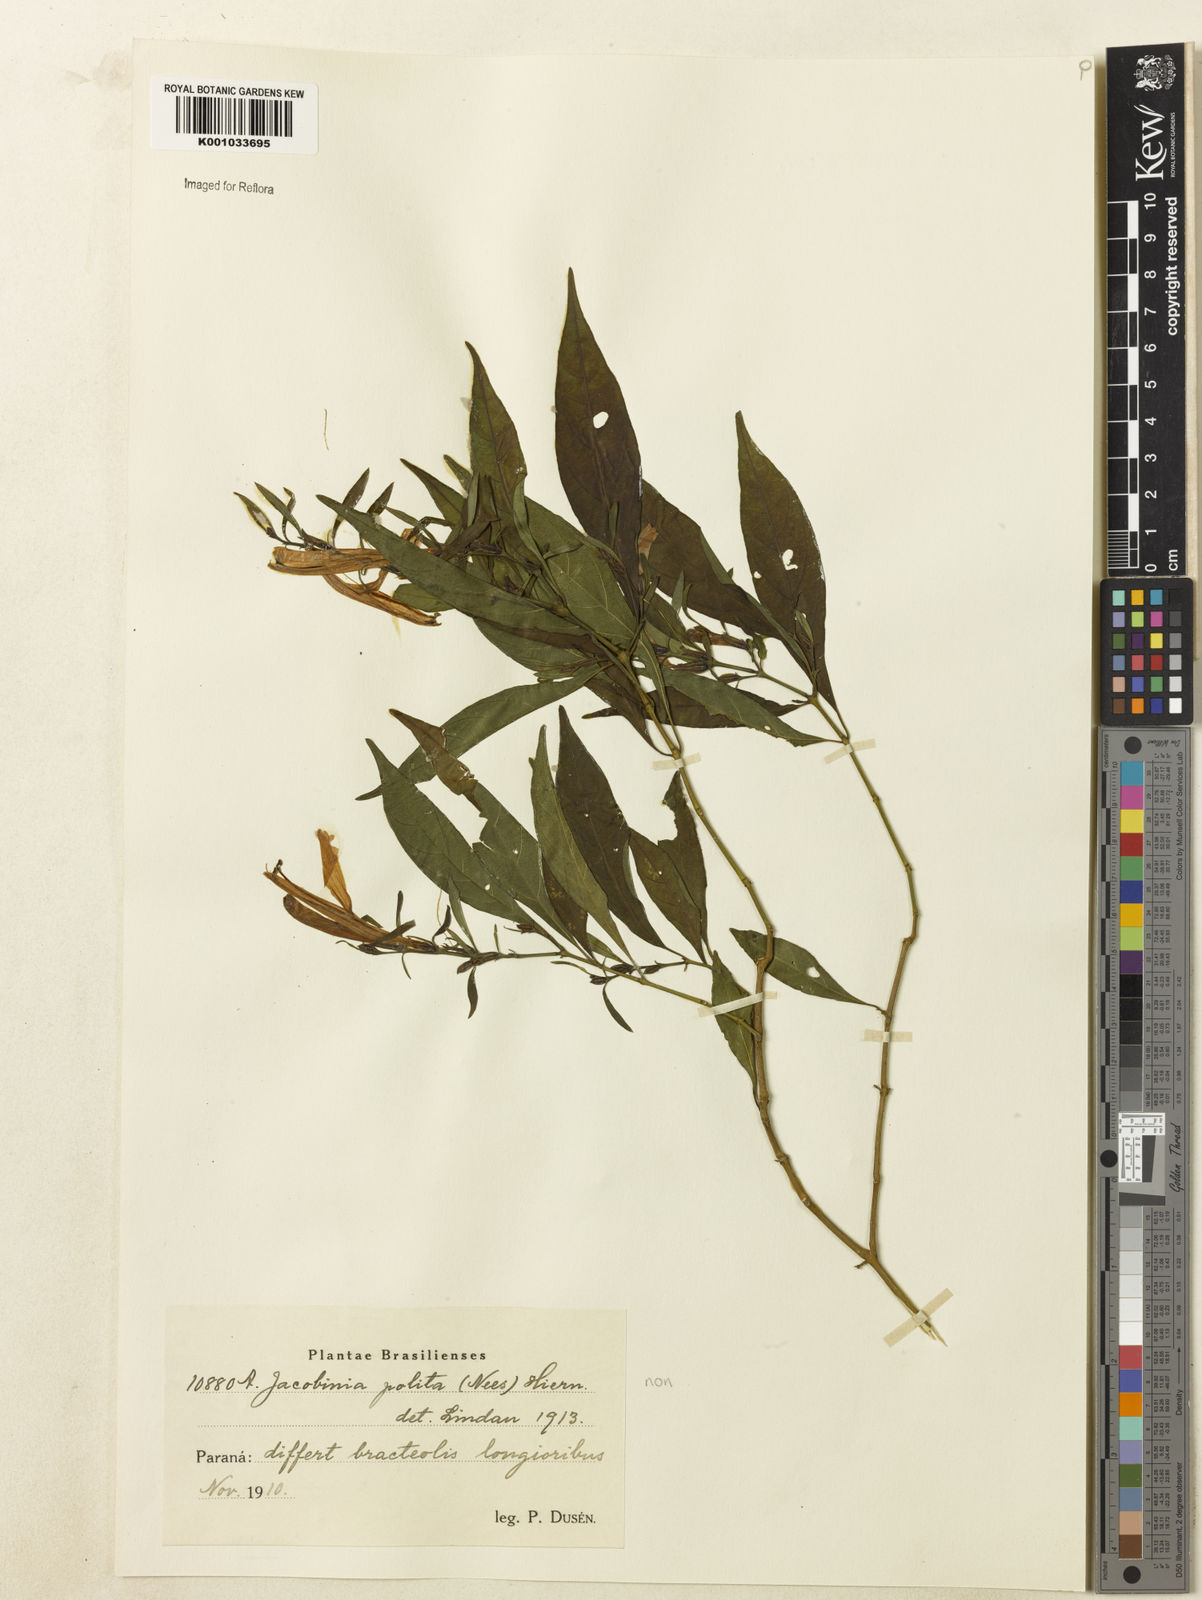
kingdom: Plantae
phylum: Tracheophyta
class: Magnoliopsida
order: Lamiales
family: Acanthaceae
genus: Justicia
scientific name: Justicia
